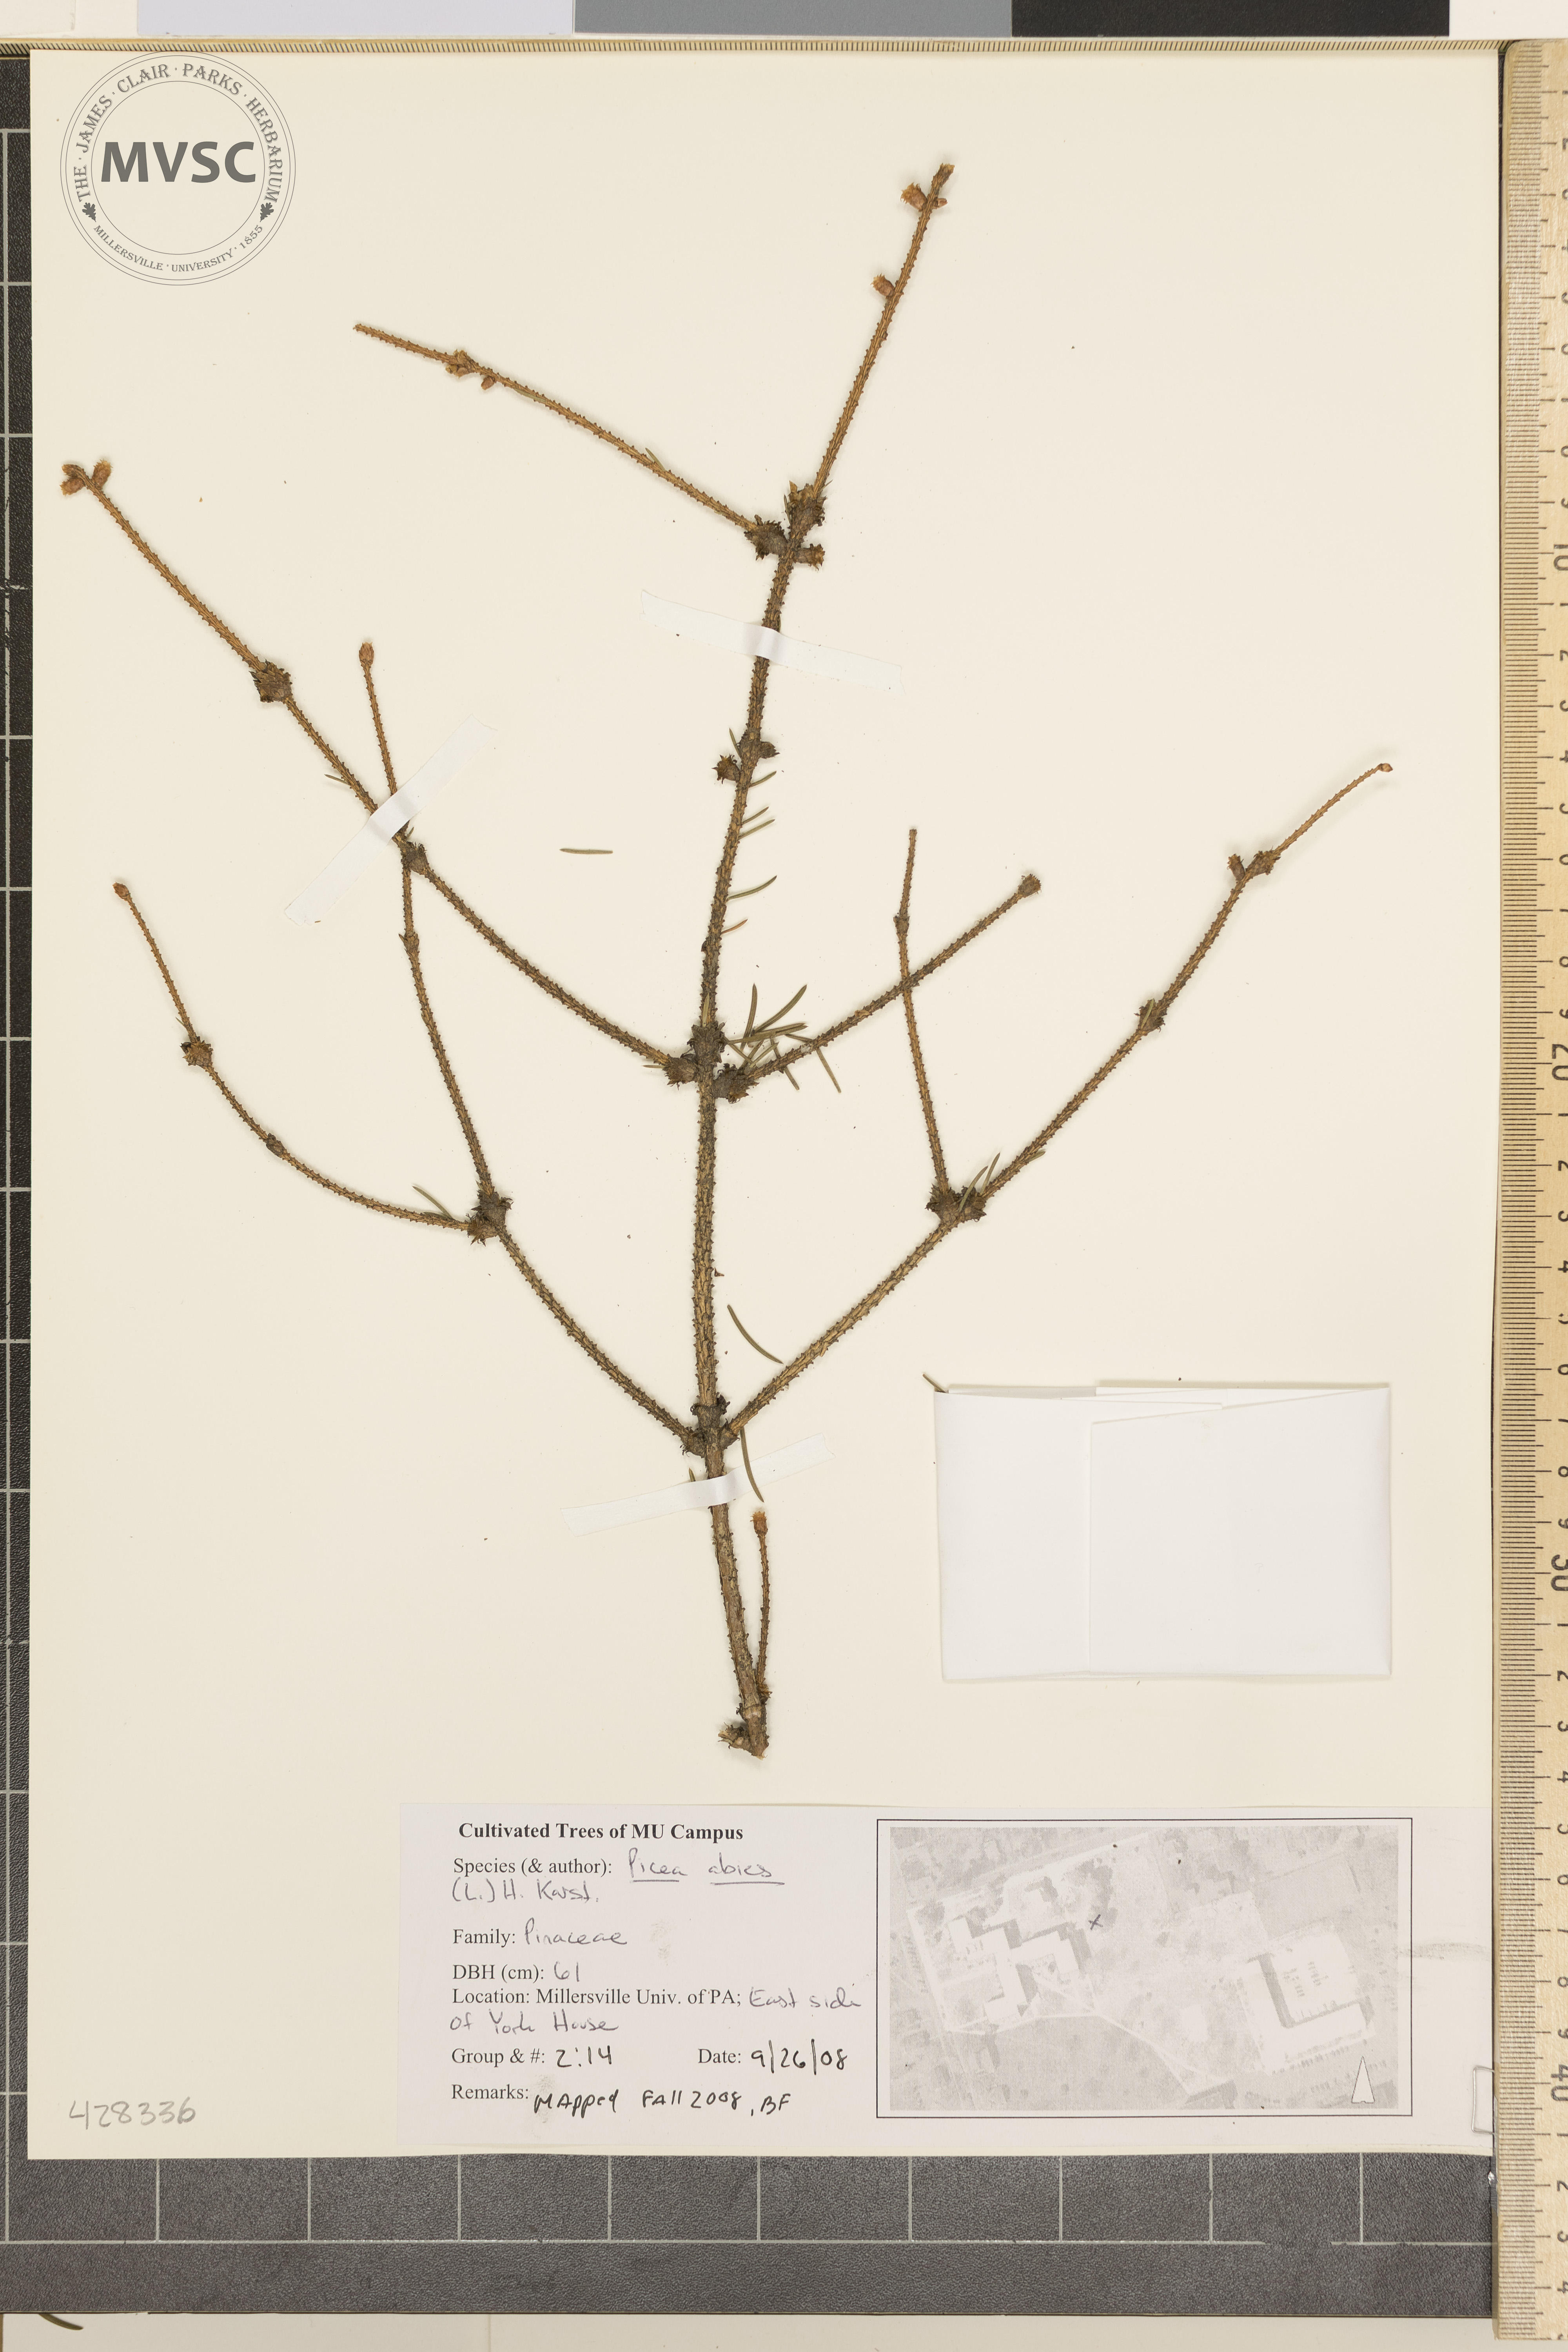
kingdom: Plantae
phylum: Tracheophyta
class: Pinopsida
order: Pinales
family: Pinaceae
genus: Picea
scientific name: Picea abies
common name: Norway Spruce
